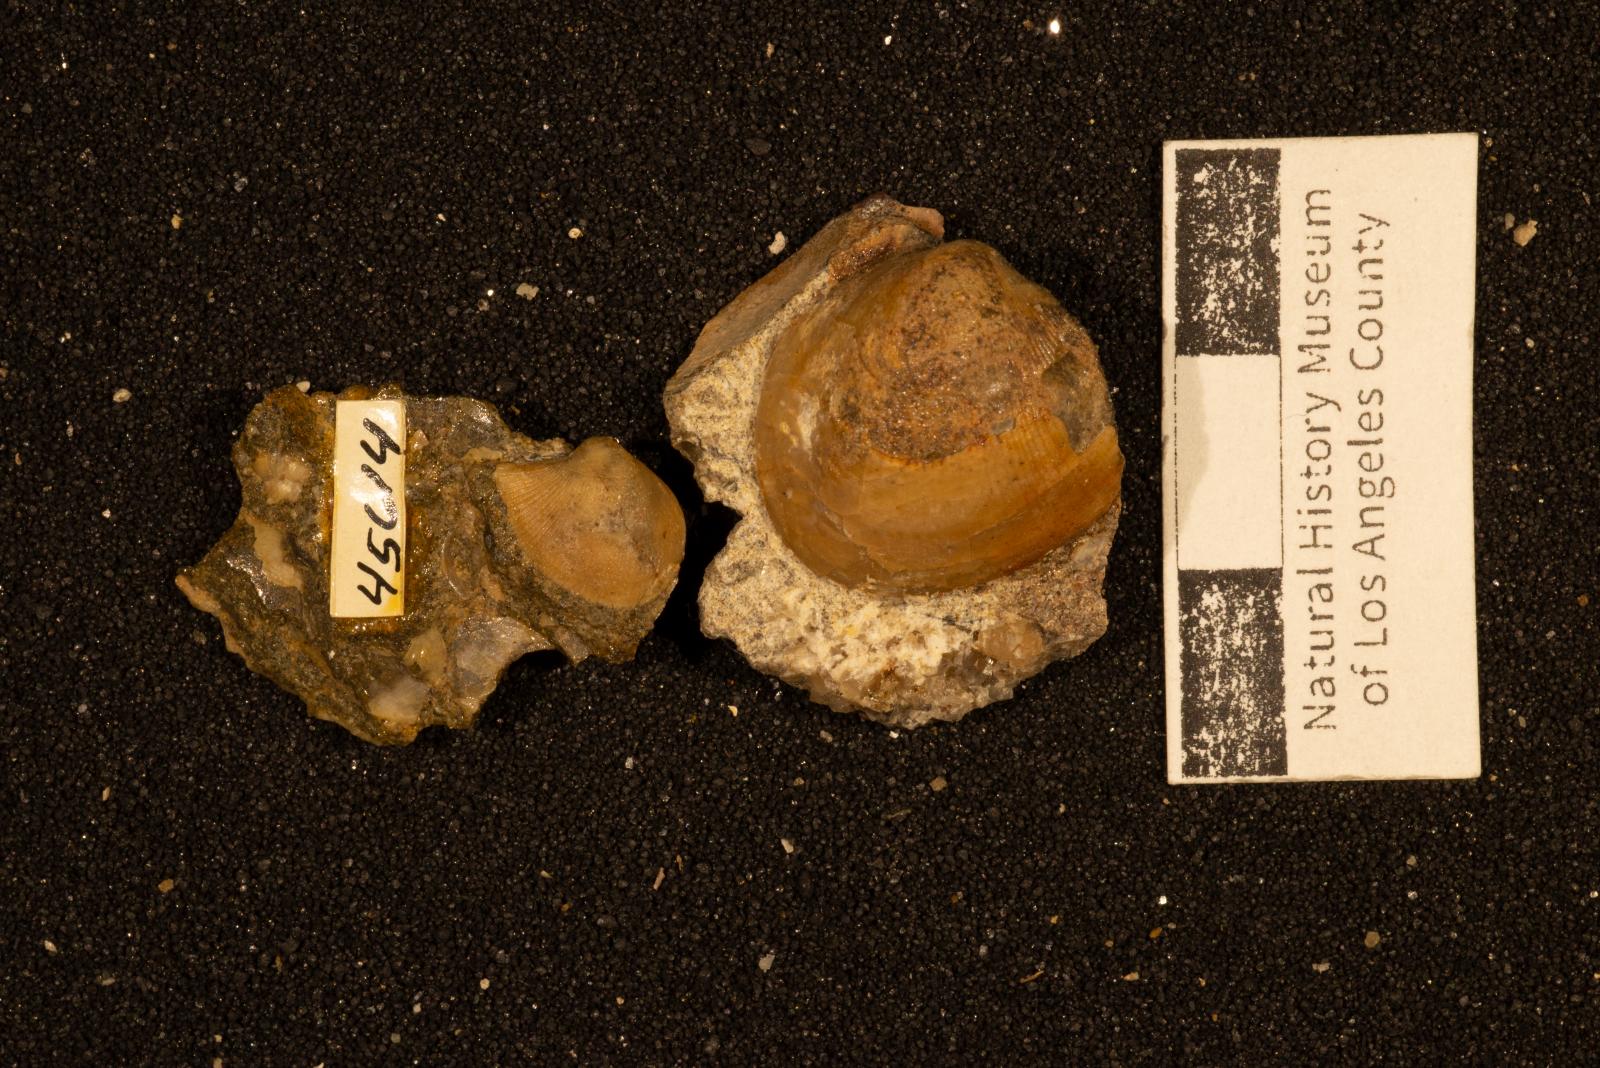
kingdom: Animalia
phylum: Mollusca
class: Bivalvia
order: Cardiida
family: Tancrediidae
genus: Meekia
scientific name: Meekia iberica
